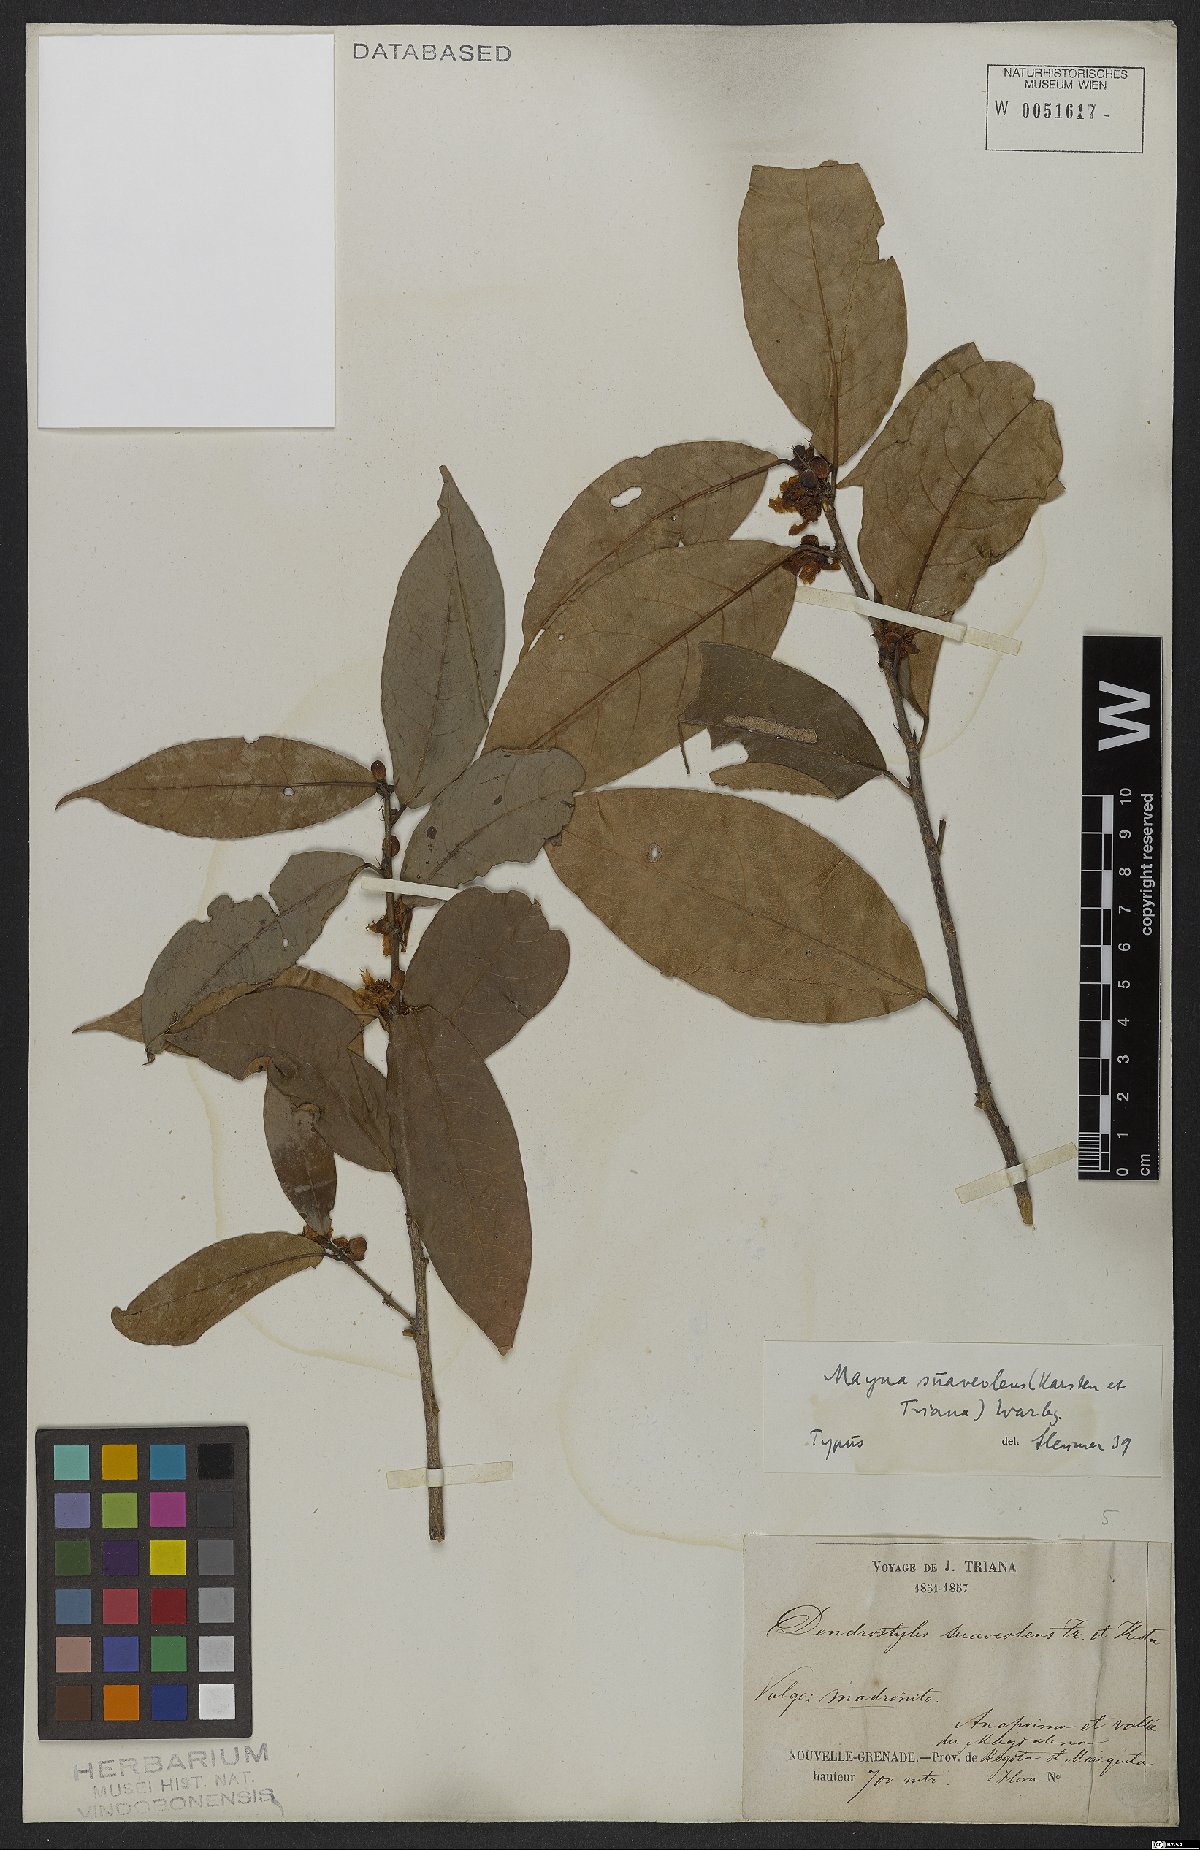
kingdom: Plantae
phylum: Tracheophyta
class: Magnoliopsida
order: Malpighiales
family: Achariaceae
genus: Mayna
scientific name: Mayna suaveolens
